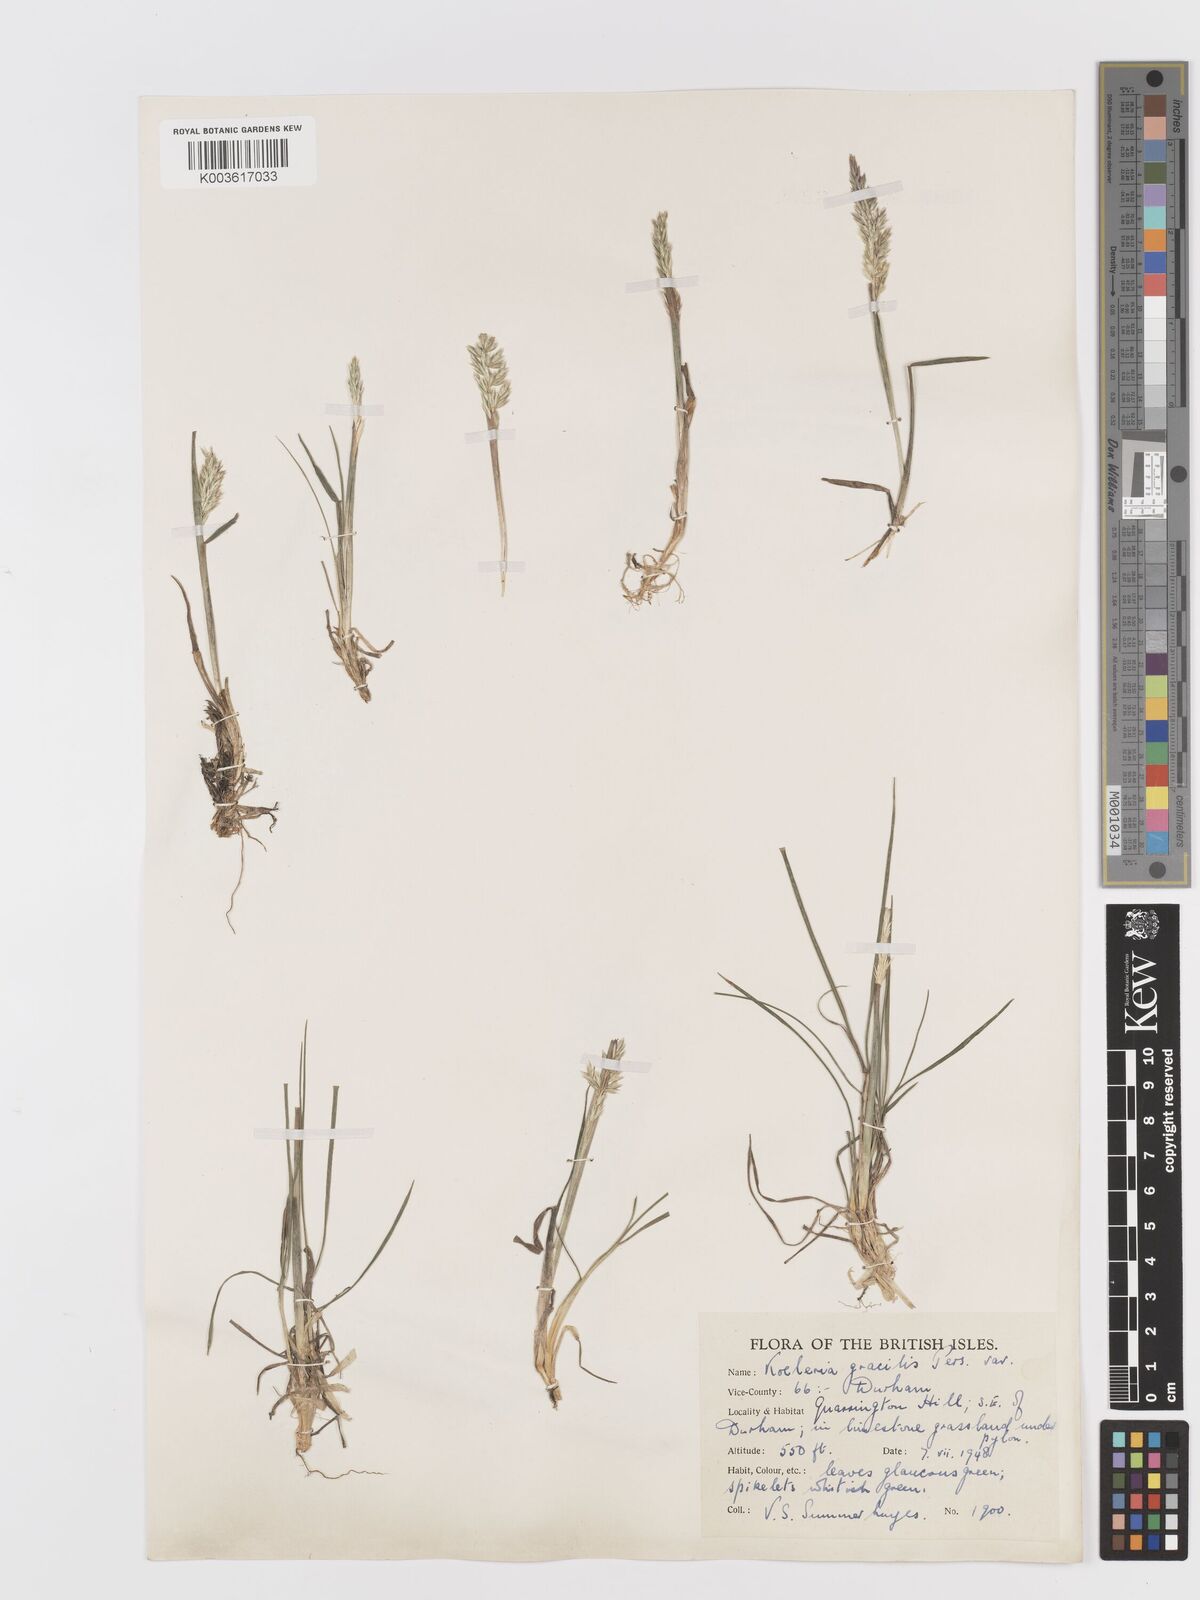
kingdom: Plantae
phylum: Tracheophyta
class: Liliopsida
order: Poales
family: Poaceae
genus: Koeleria
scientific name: Koeleria nitidula
